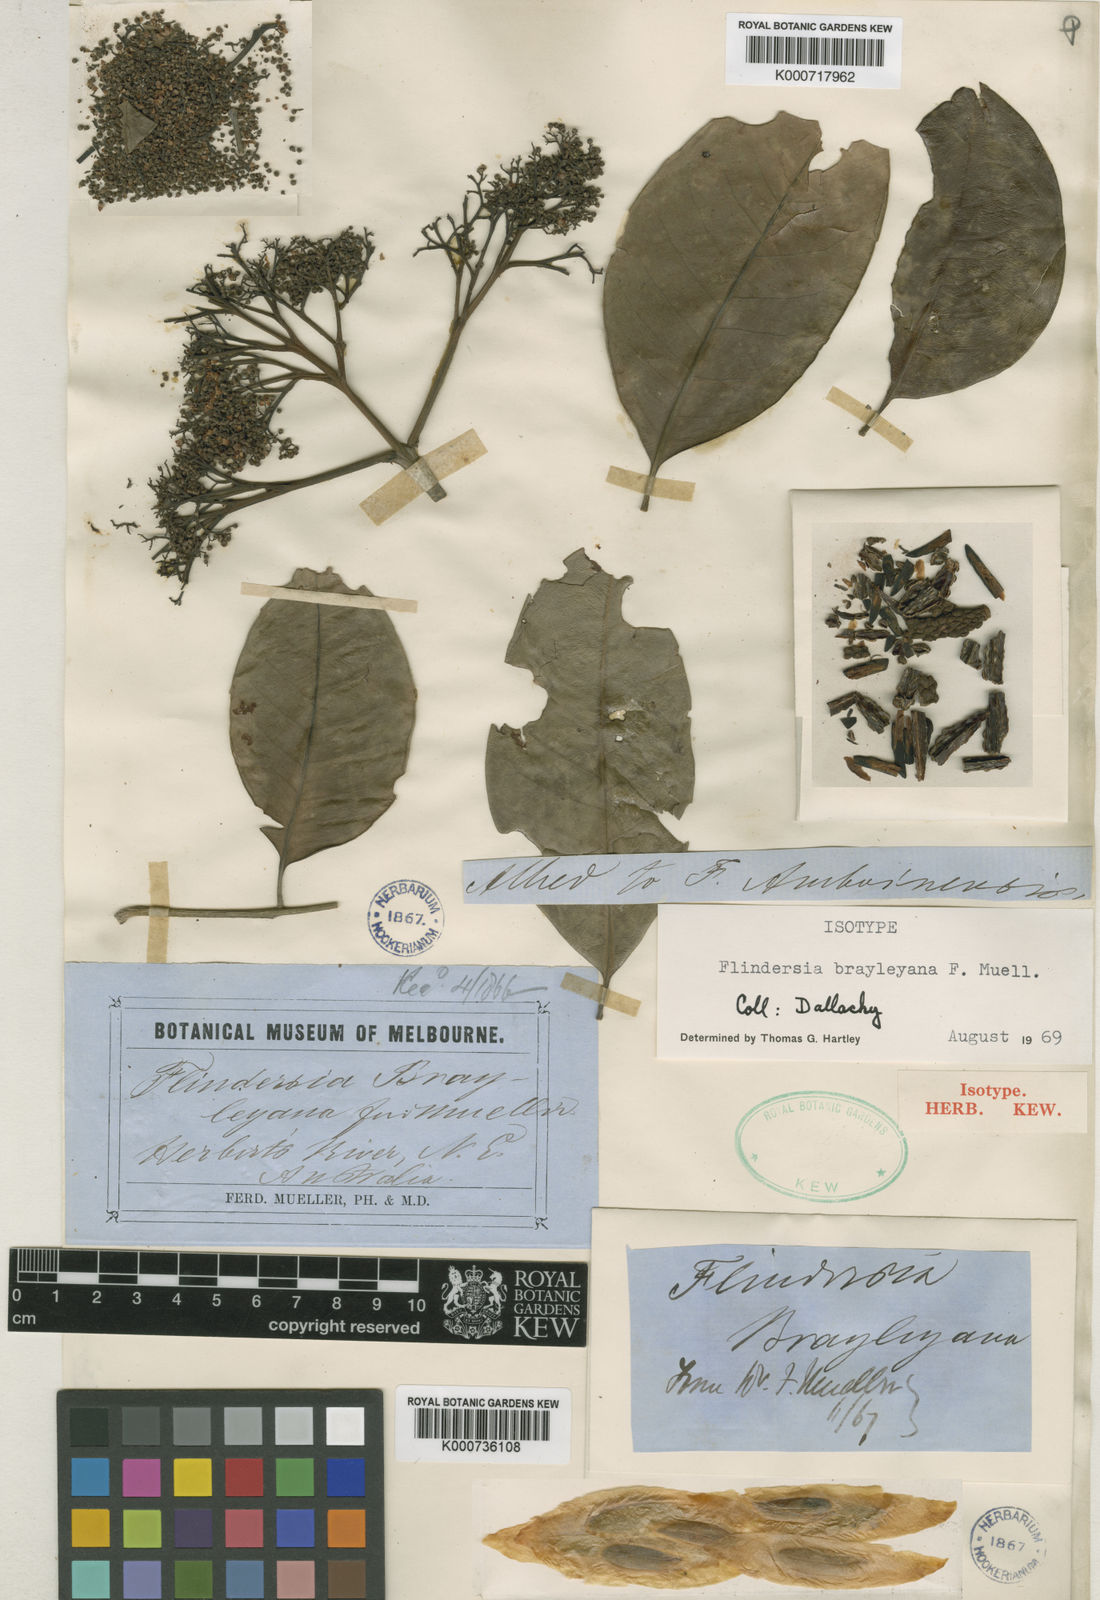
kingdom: Plantae
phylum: Tracheophyta
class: Magnoliopsida
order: Sapindales
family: Rutaceae
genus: Flindersia
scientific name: Flindersia brayleyana
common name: Queensland maple
